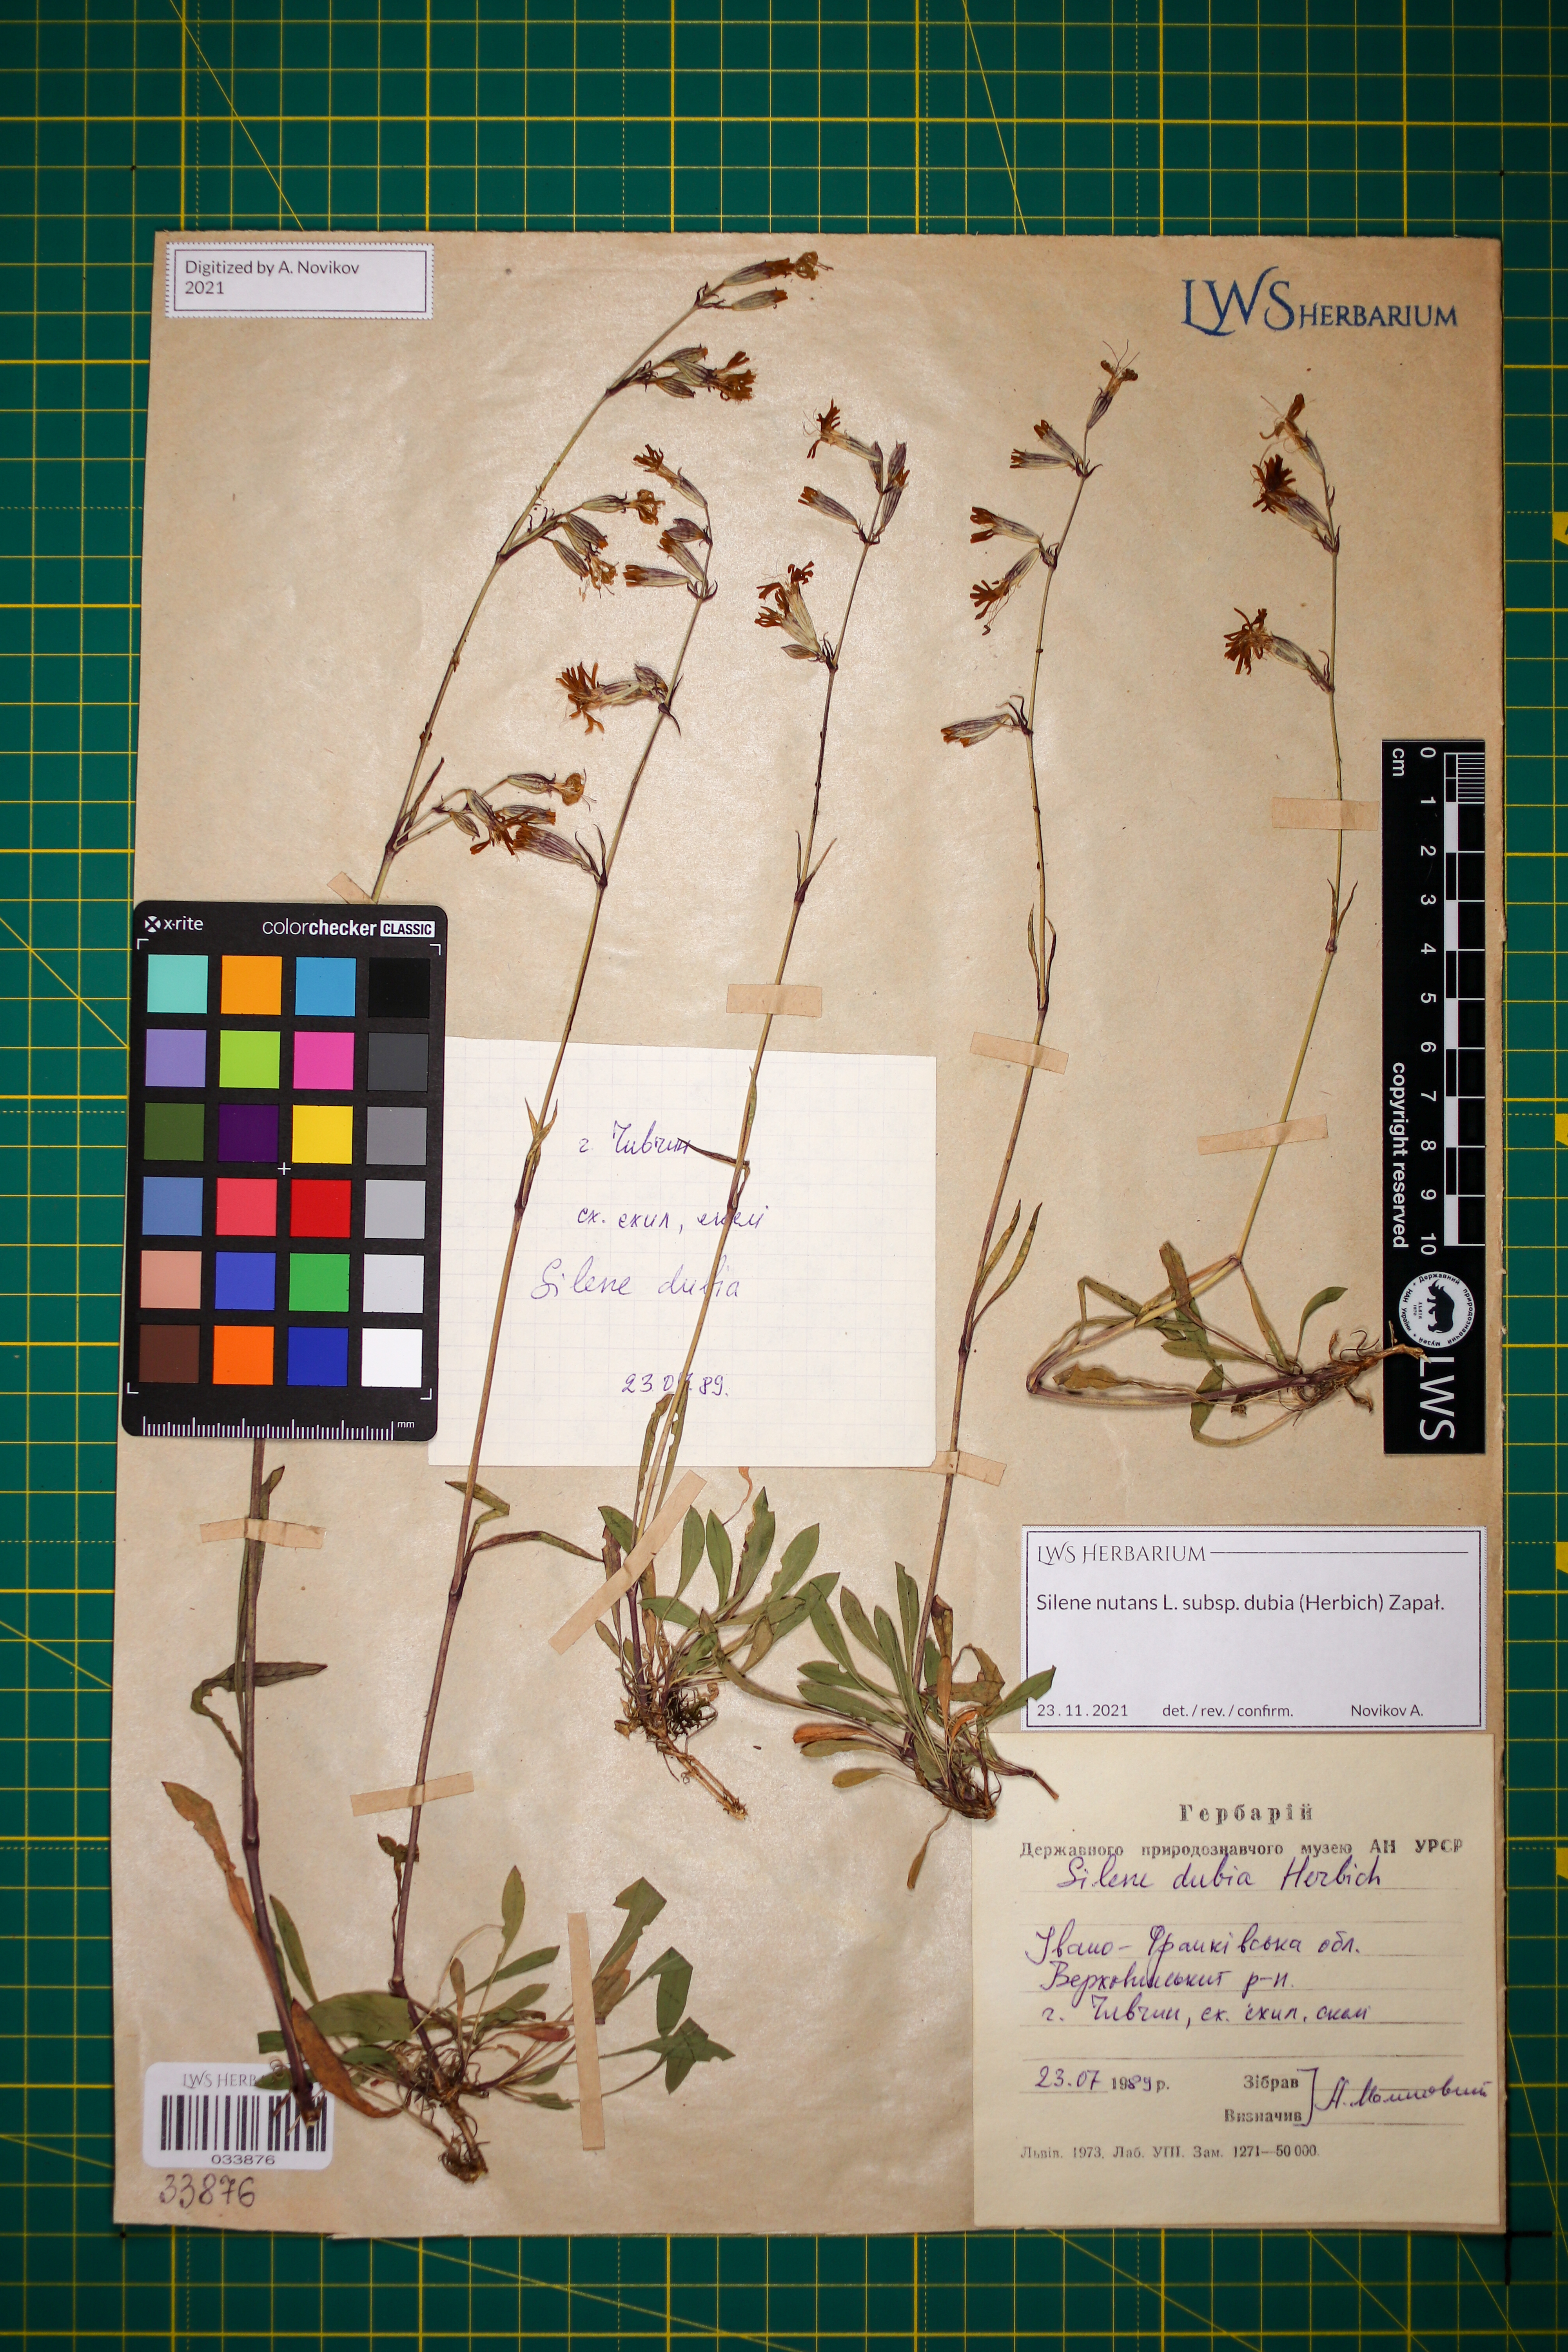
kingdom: Plantae
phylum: Tracheophyta
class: Magnoliopsida
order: Caryophyllales
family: Caryophyllaceae
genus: Silene
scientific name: Silene nutans
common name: Nottingham catchfly
